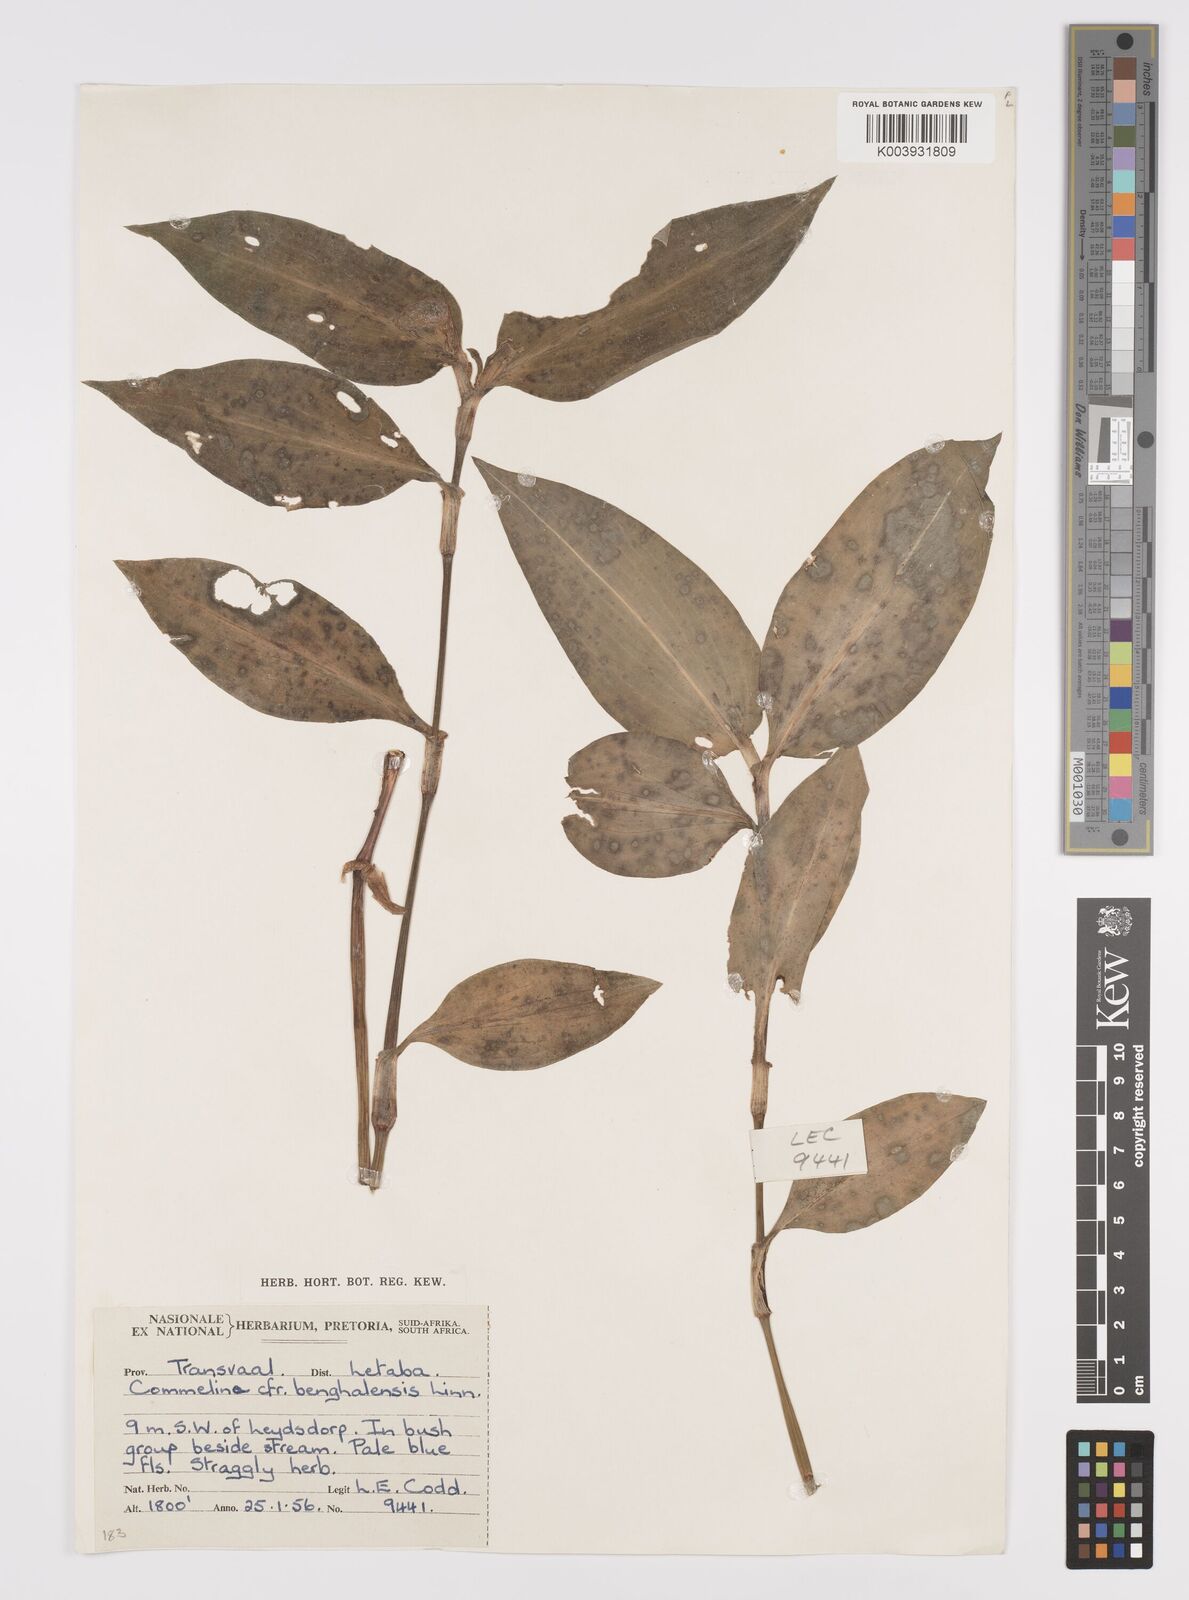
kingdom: Plantae
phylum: Tracheophyta
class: Liliopsida
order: Commelinales
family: Commelinaceae
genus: Commelina
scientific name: Commelina benghalensis
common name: Jio
